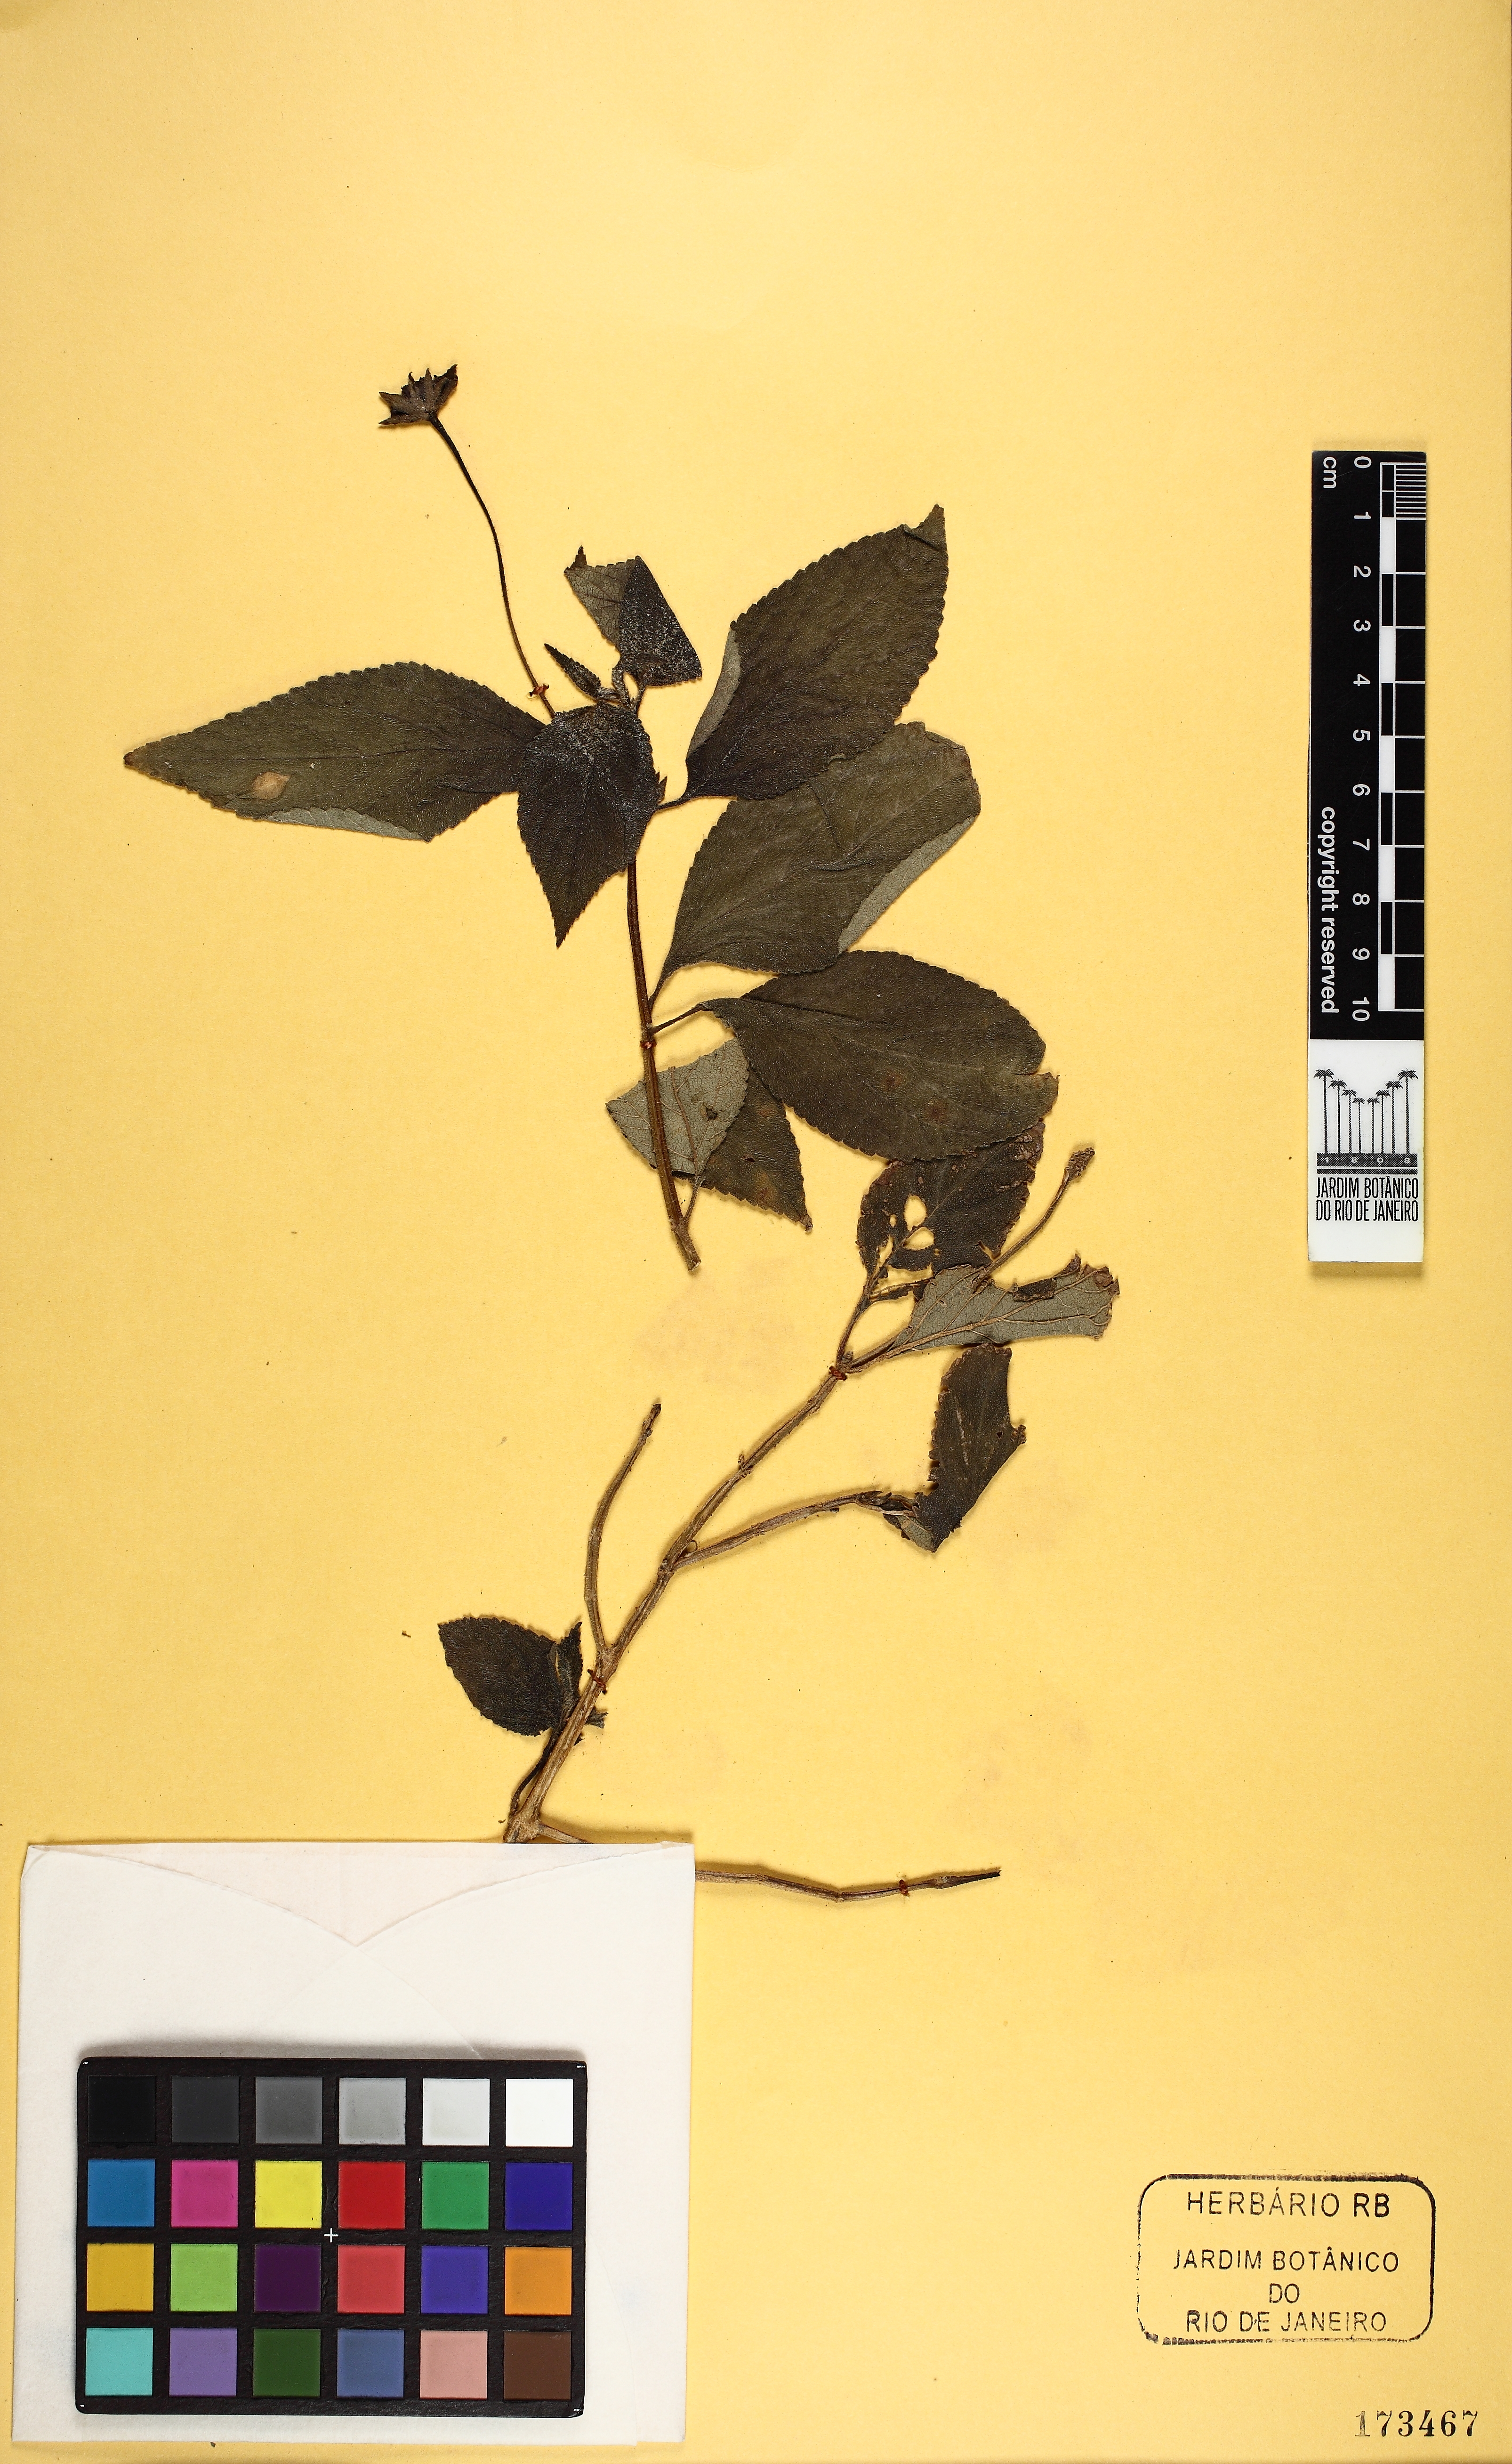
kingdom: Plantae
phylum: Tracheophyta
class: Magnoliopsida
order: Lamiales
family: Verbenaceae
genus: Lantana
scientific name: Lantana
